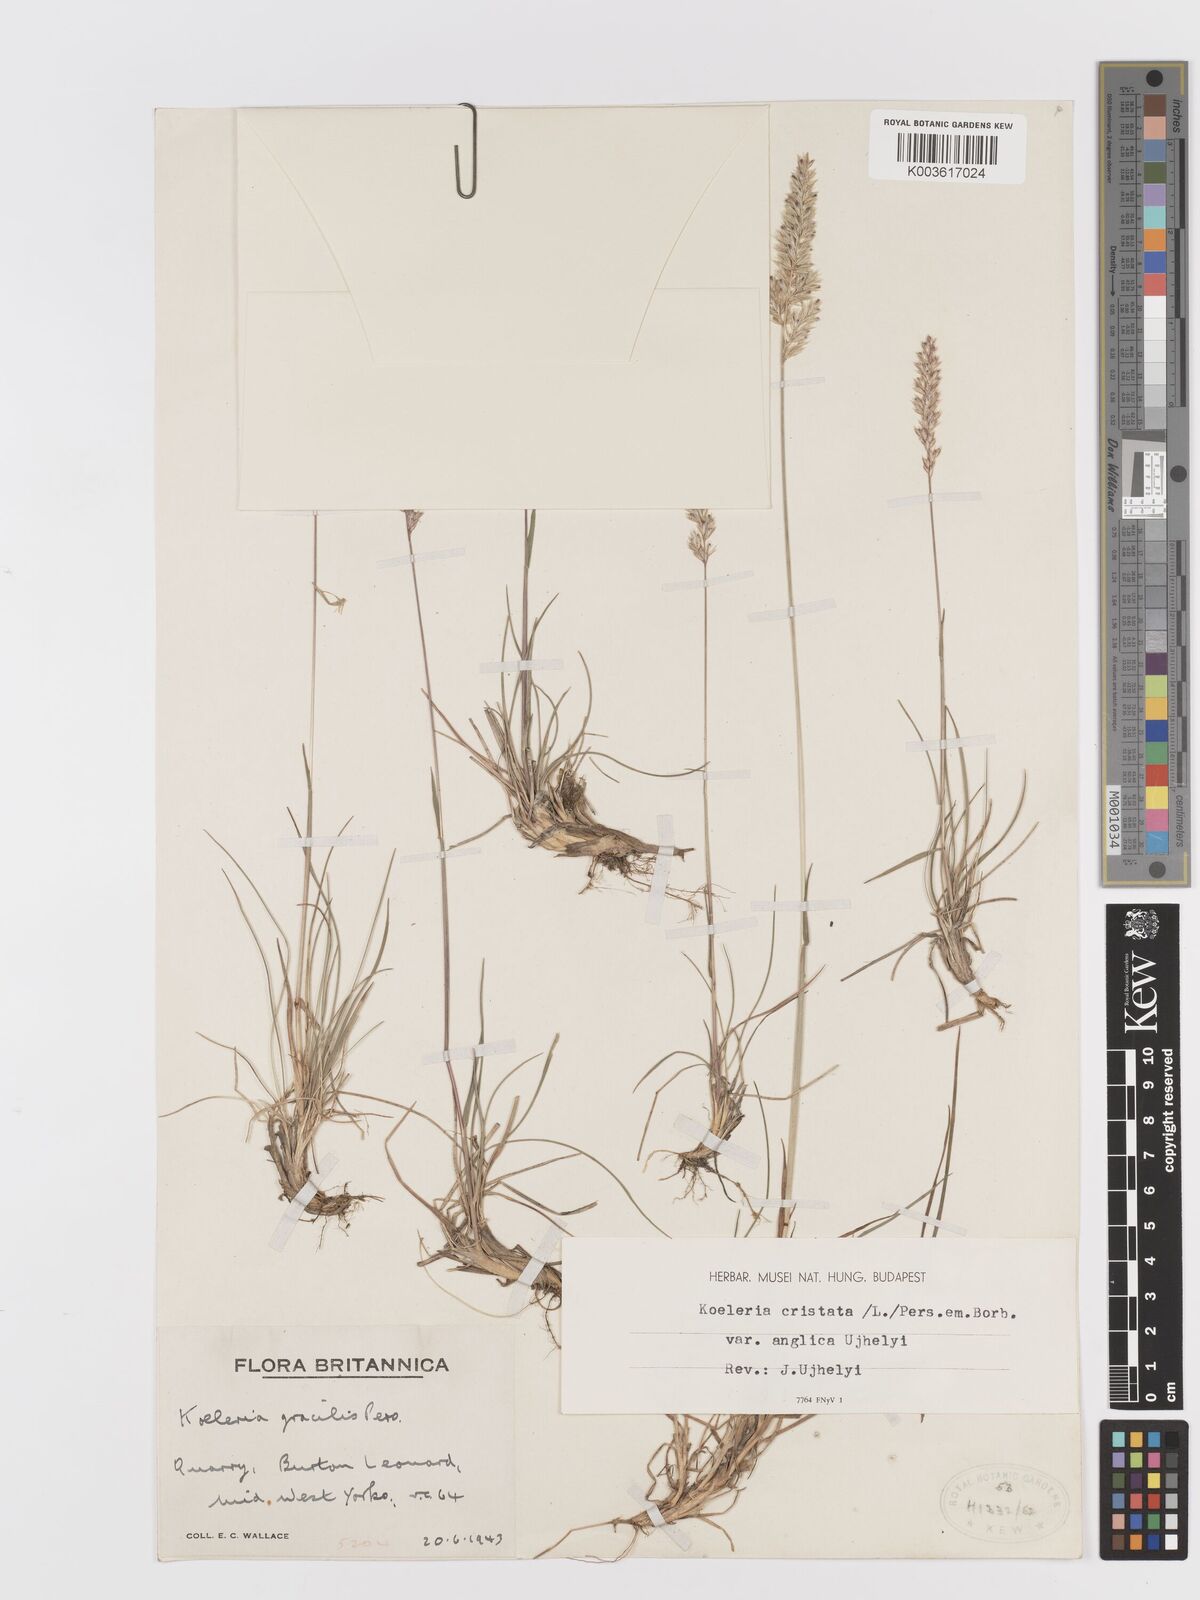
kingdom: Plantae
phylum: Tracheophyta
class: Liliopsida
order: Poales
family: Poaceae
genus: Koeleria
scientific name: Koeleria macrantha
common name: Crested hair-grass
